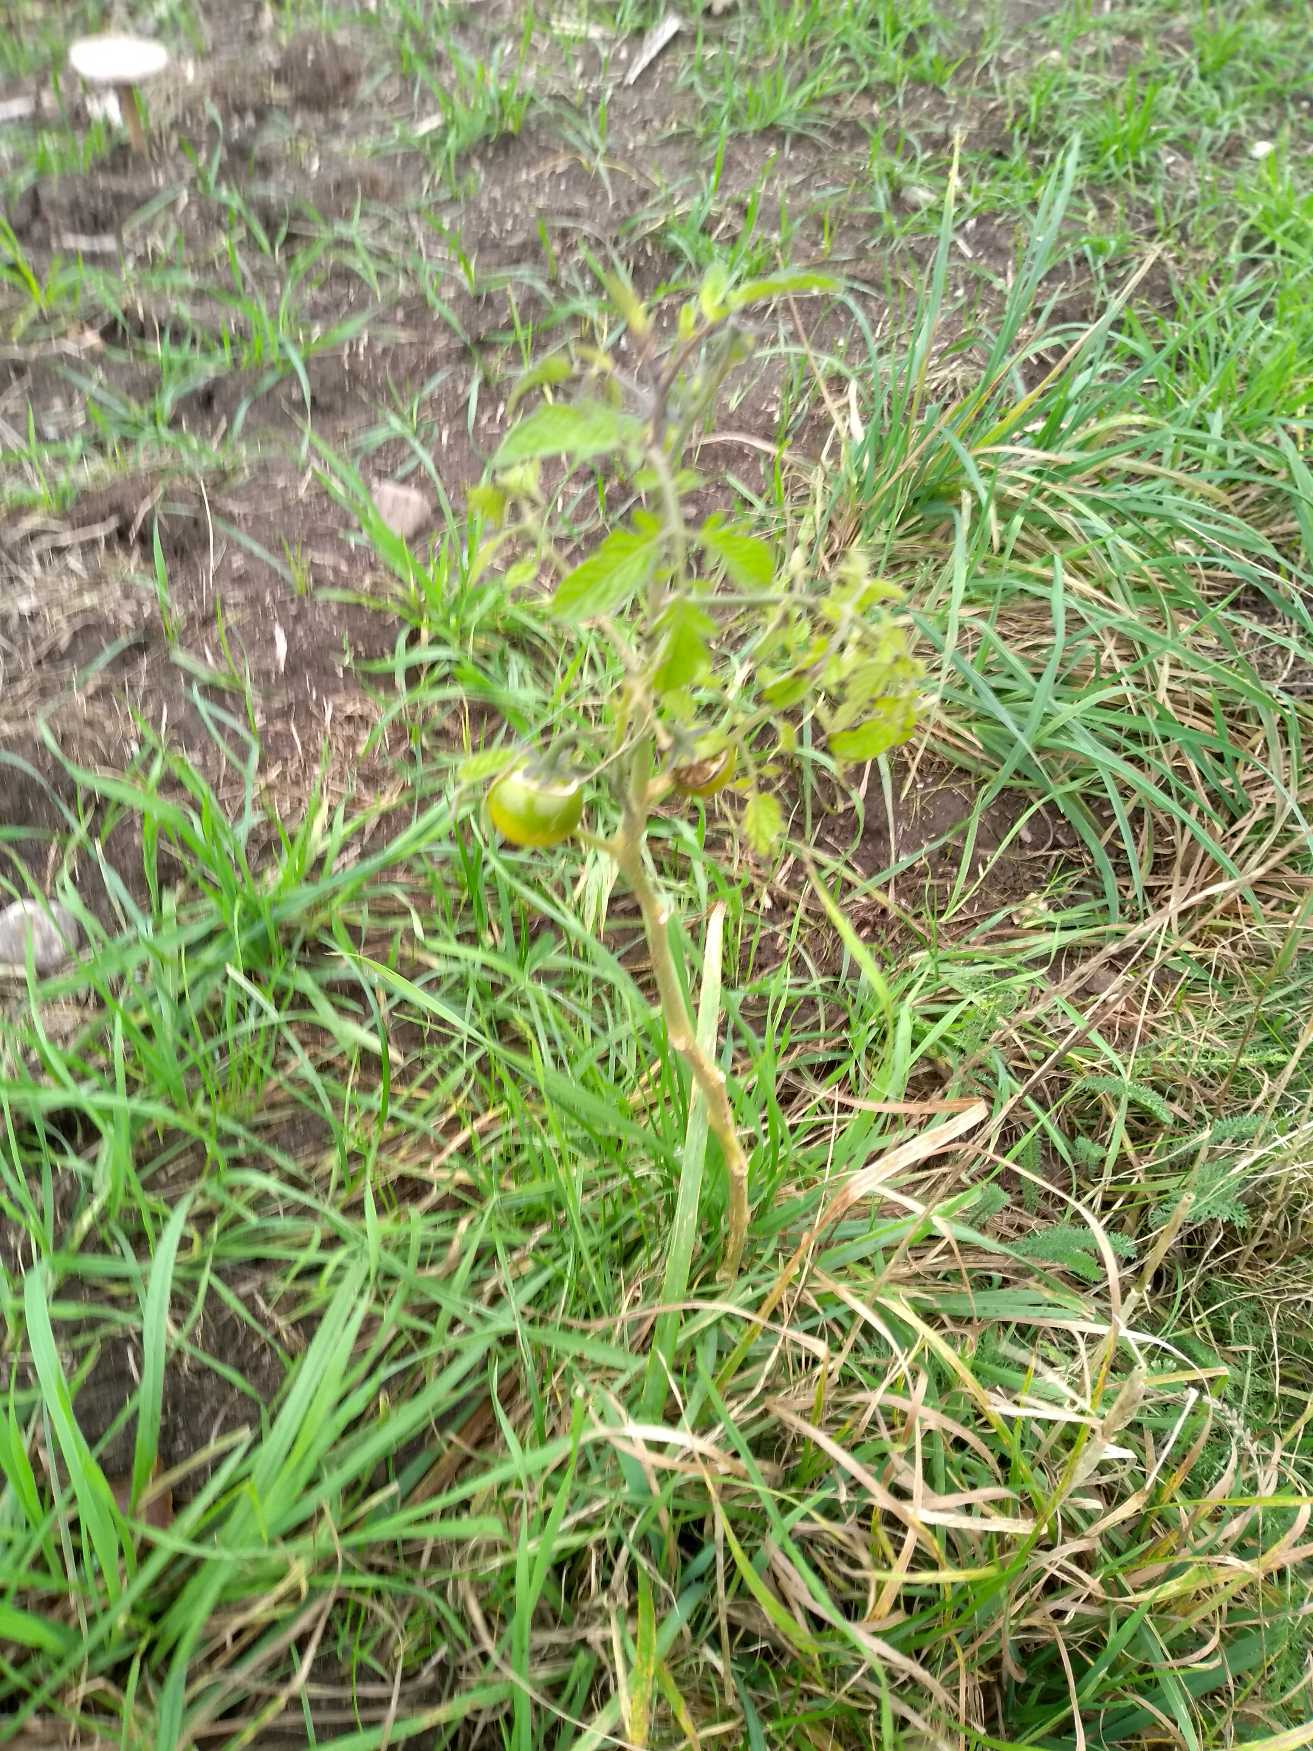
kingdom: Plantae
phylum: Tracheophyta
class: Magnoliopsida
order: Solanales
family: Solanaceae
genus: Solanum
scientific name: Solanum lycopersicum
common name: Tomat
